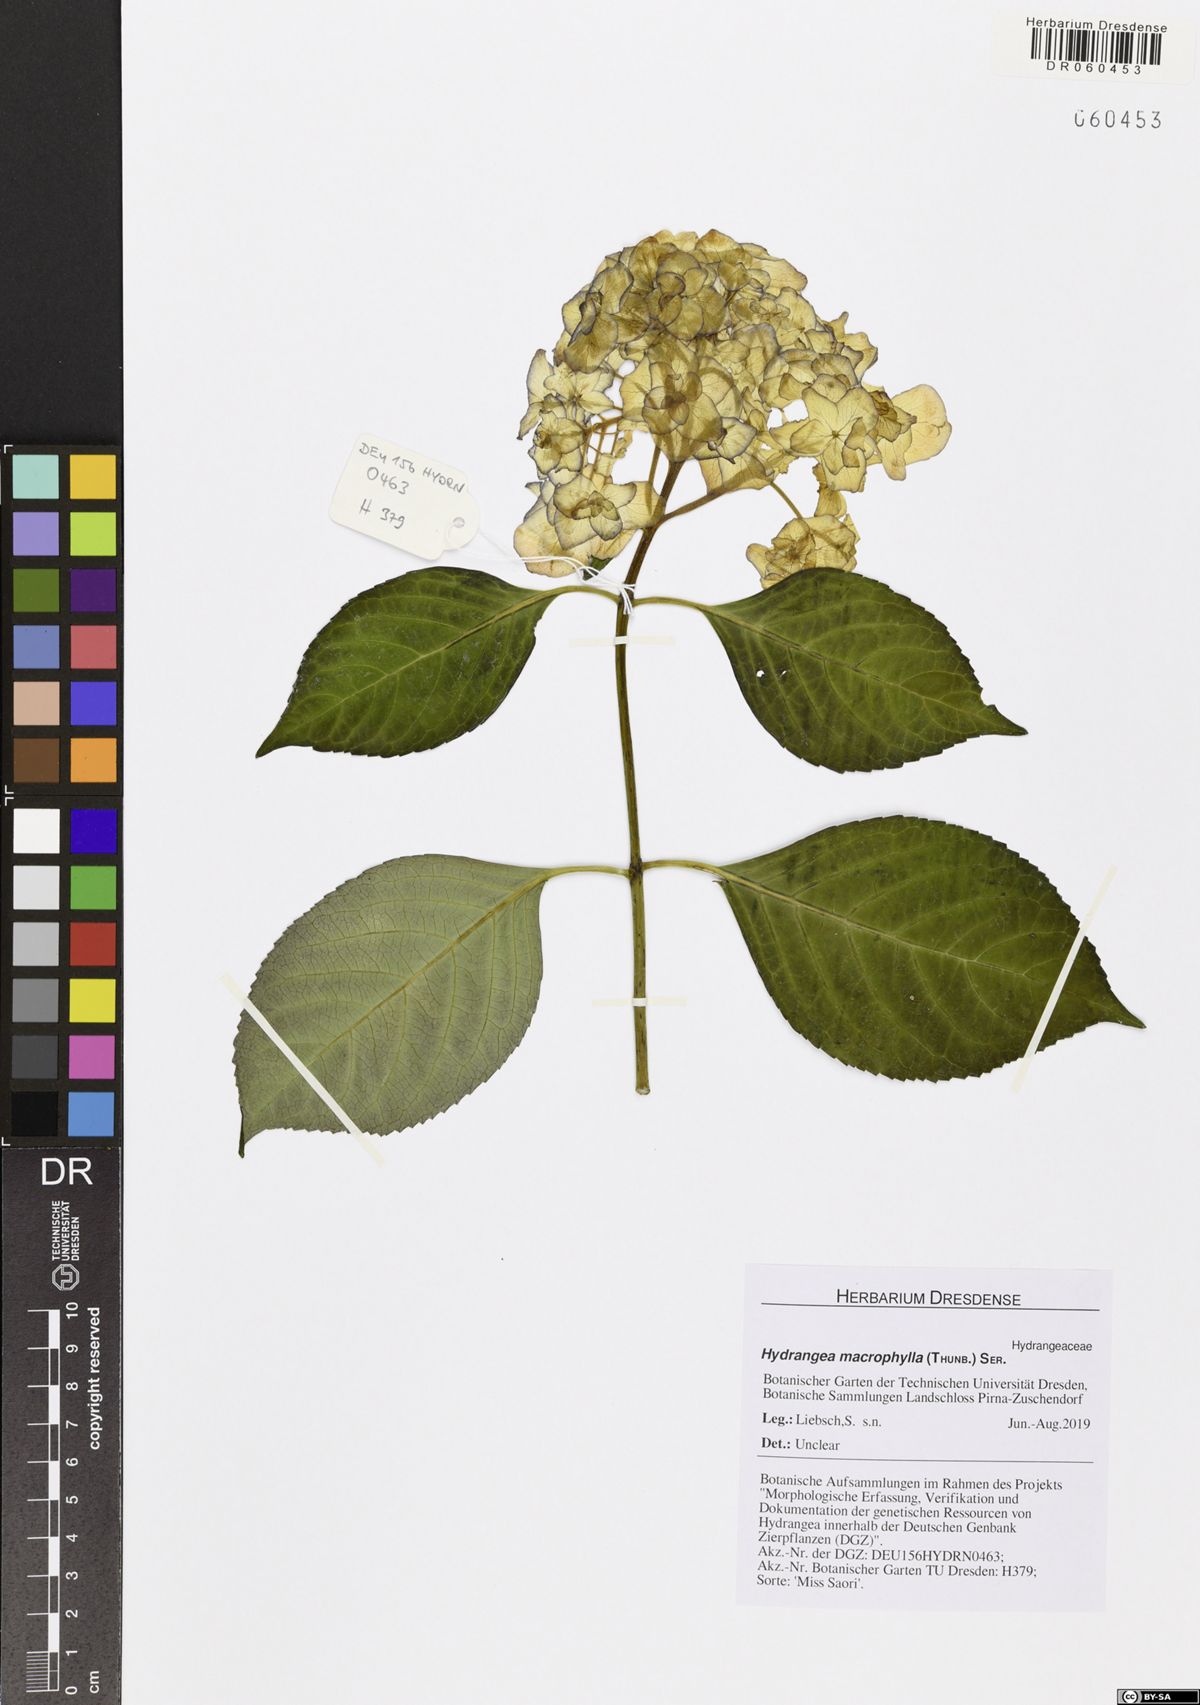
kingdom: Plantae
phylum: Tracheophyta
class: Magnoliopsida
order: Cornales
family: Hydrangeaceae
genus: Hydrangea
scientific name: Hydrangea macrophylla
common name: Hydrangea
